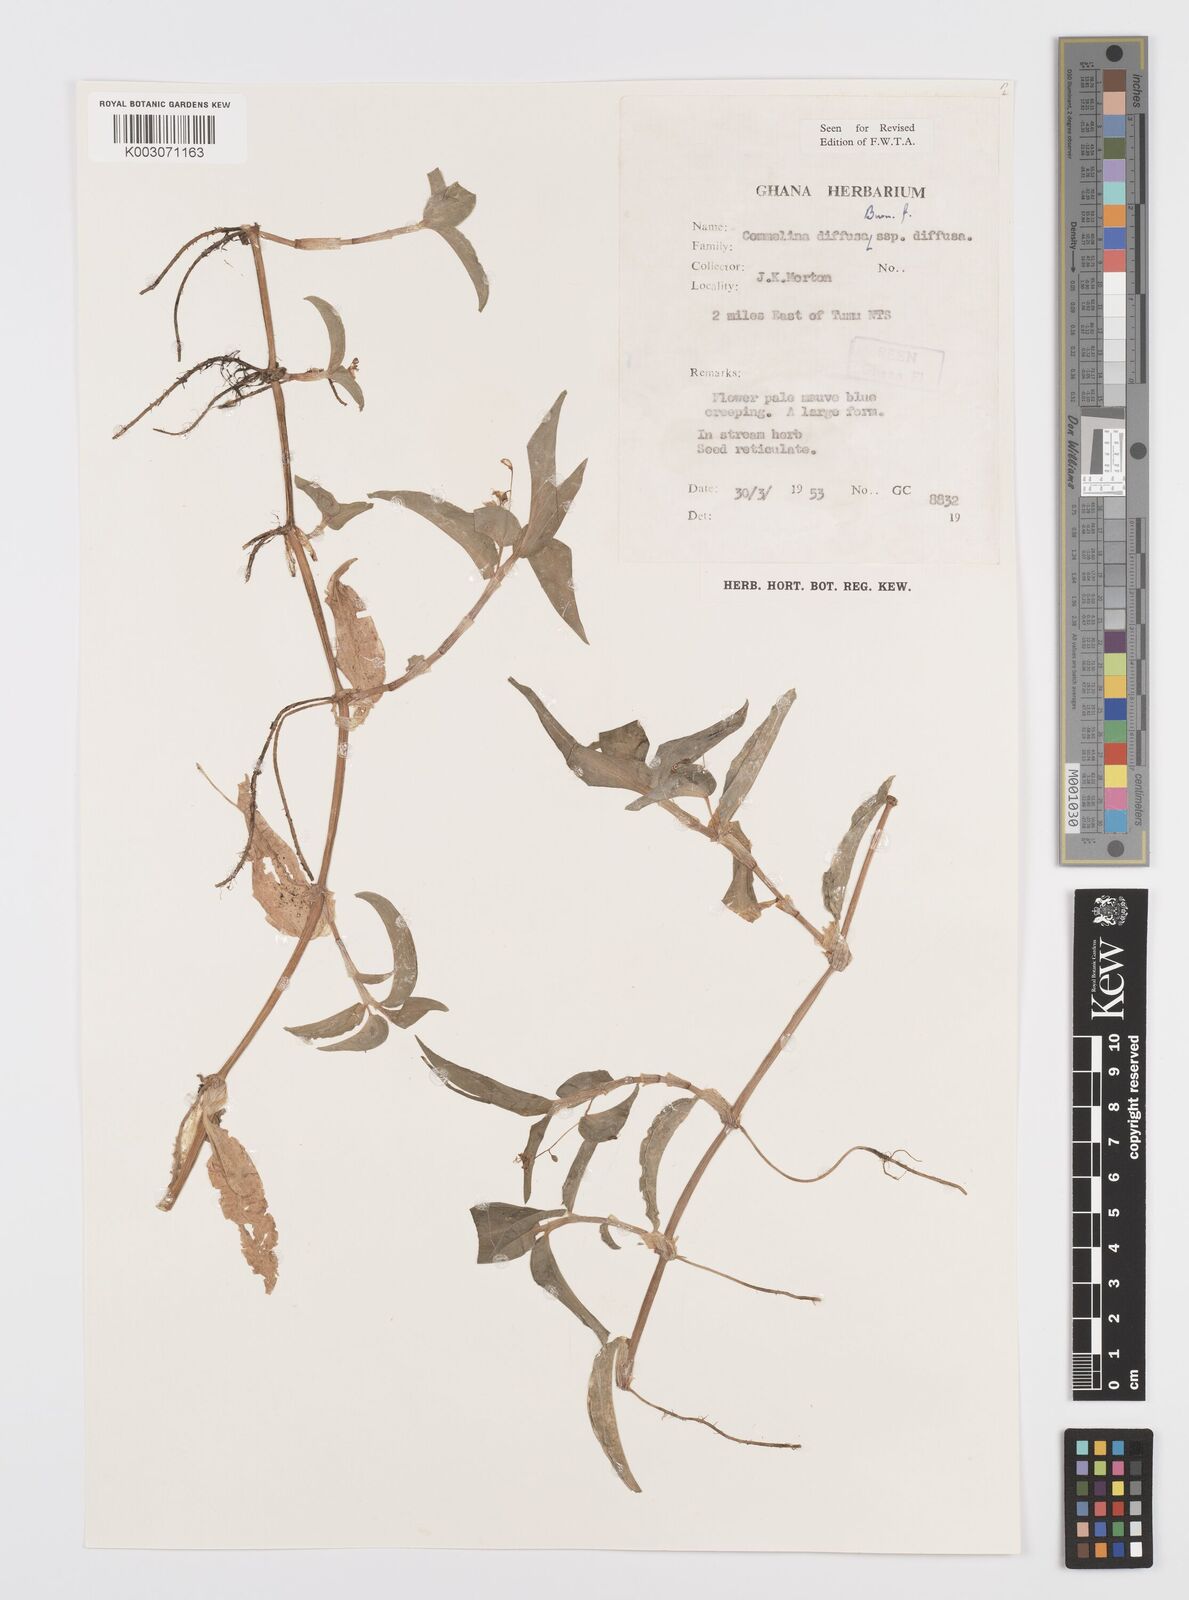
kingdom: Plantae
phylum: Tracheophyta
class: Liliopsida
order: Commelinales
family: Commelinaceae
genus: Commelina
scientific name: Commelina diffusa
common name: Climbing dayflower
